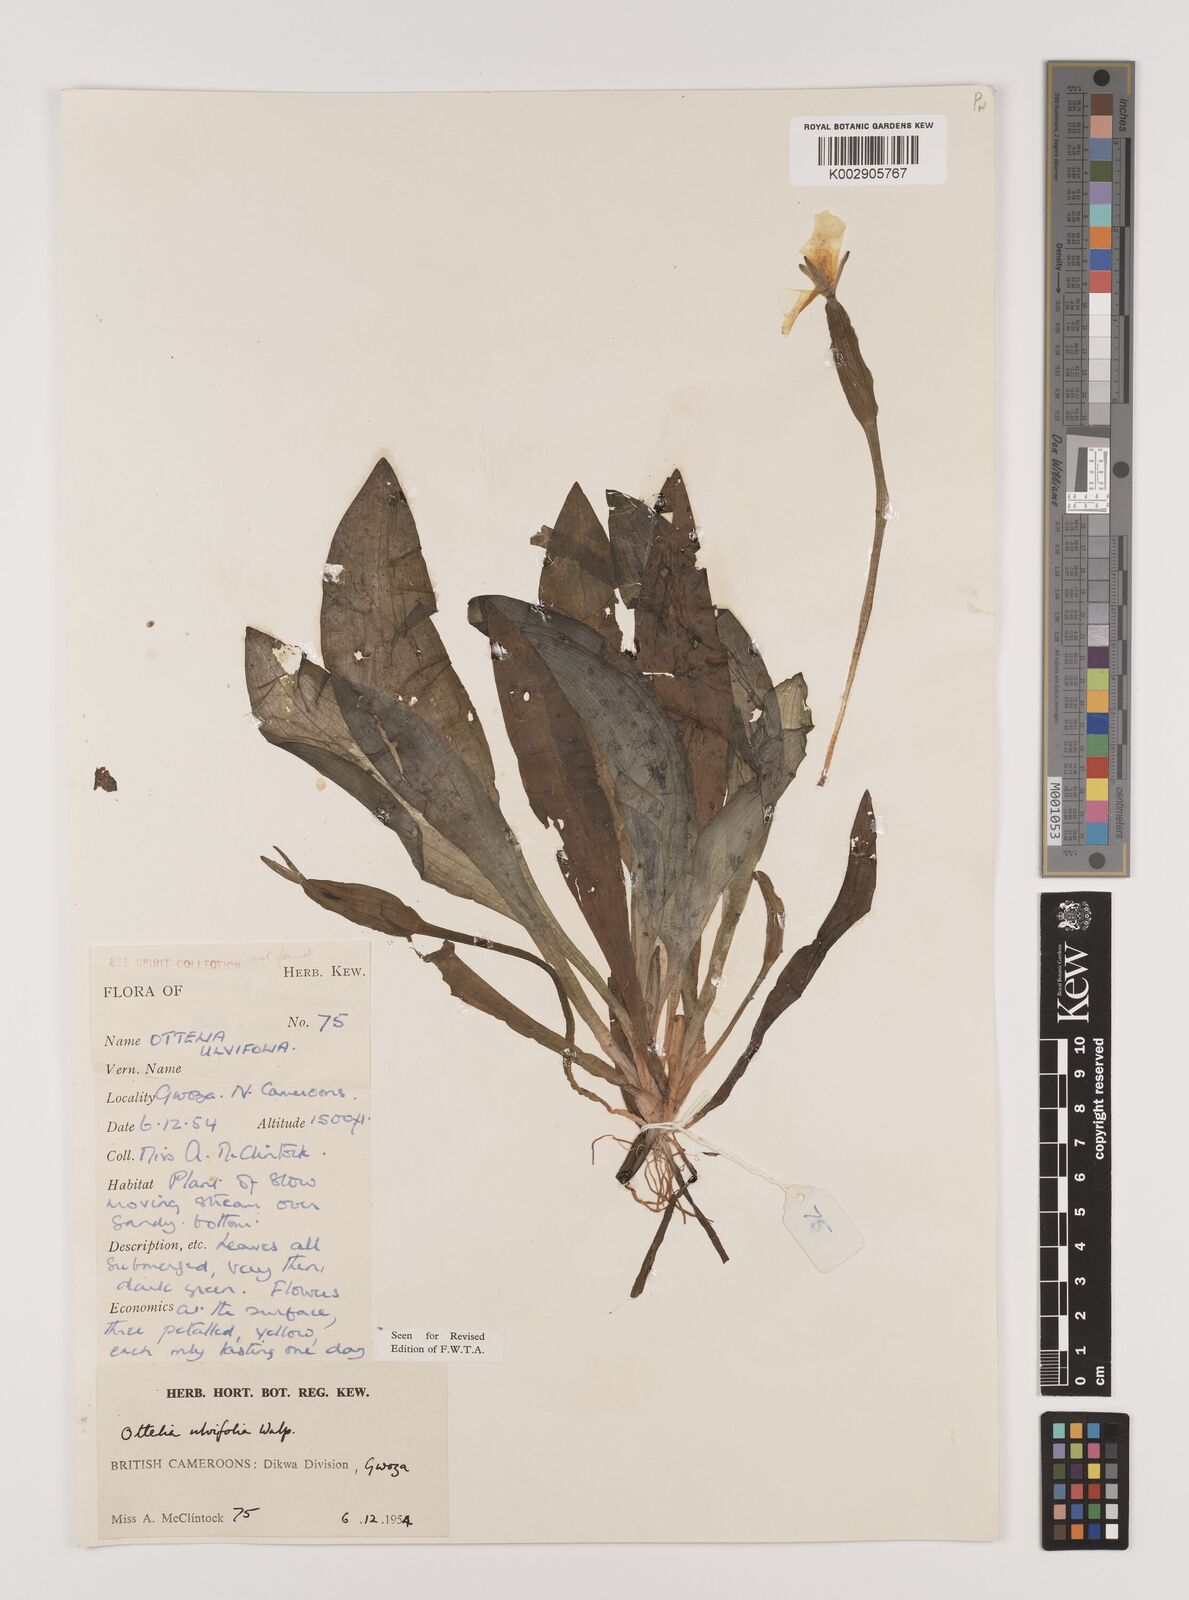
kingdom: Plantae
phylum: Tracheophyta
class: Liliopsida
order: Alismatales
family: Hydrocharitaceae
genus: Ottelia
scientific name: Ottelia ulvifolia
